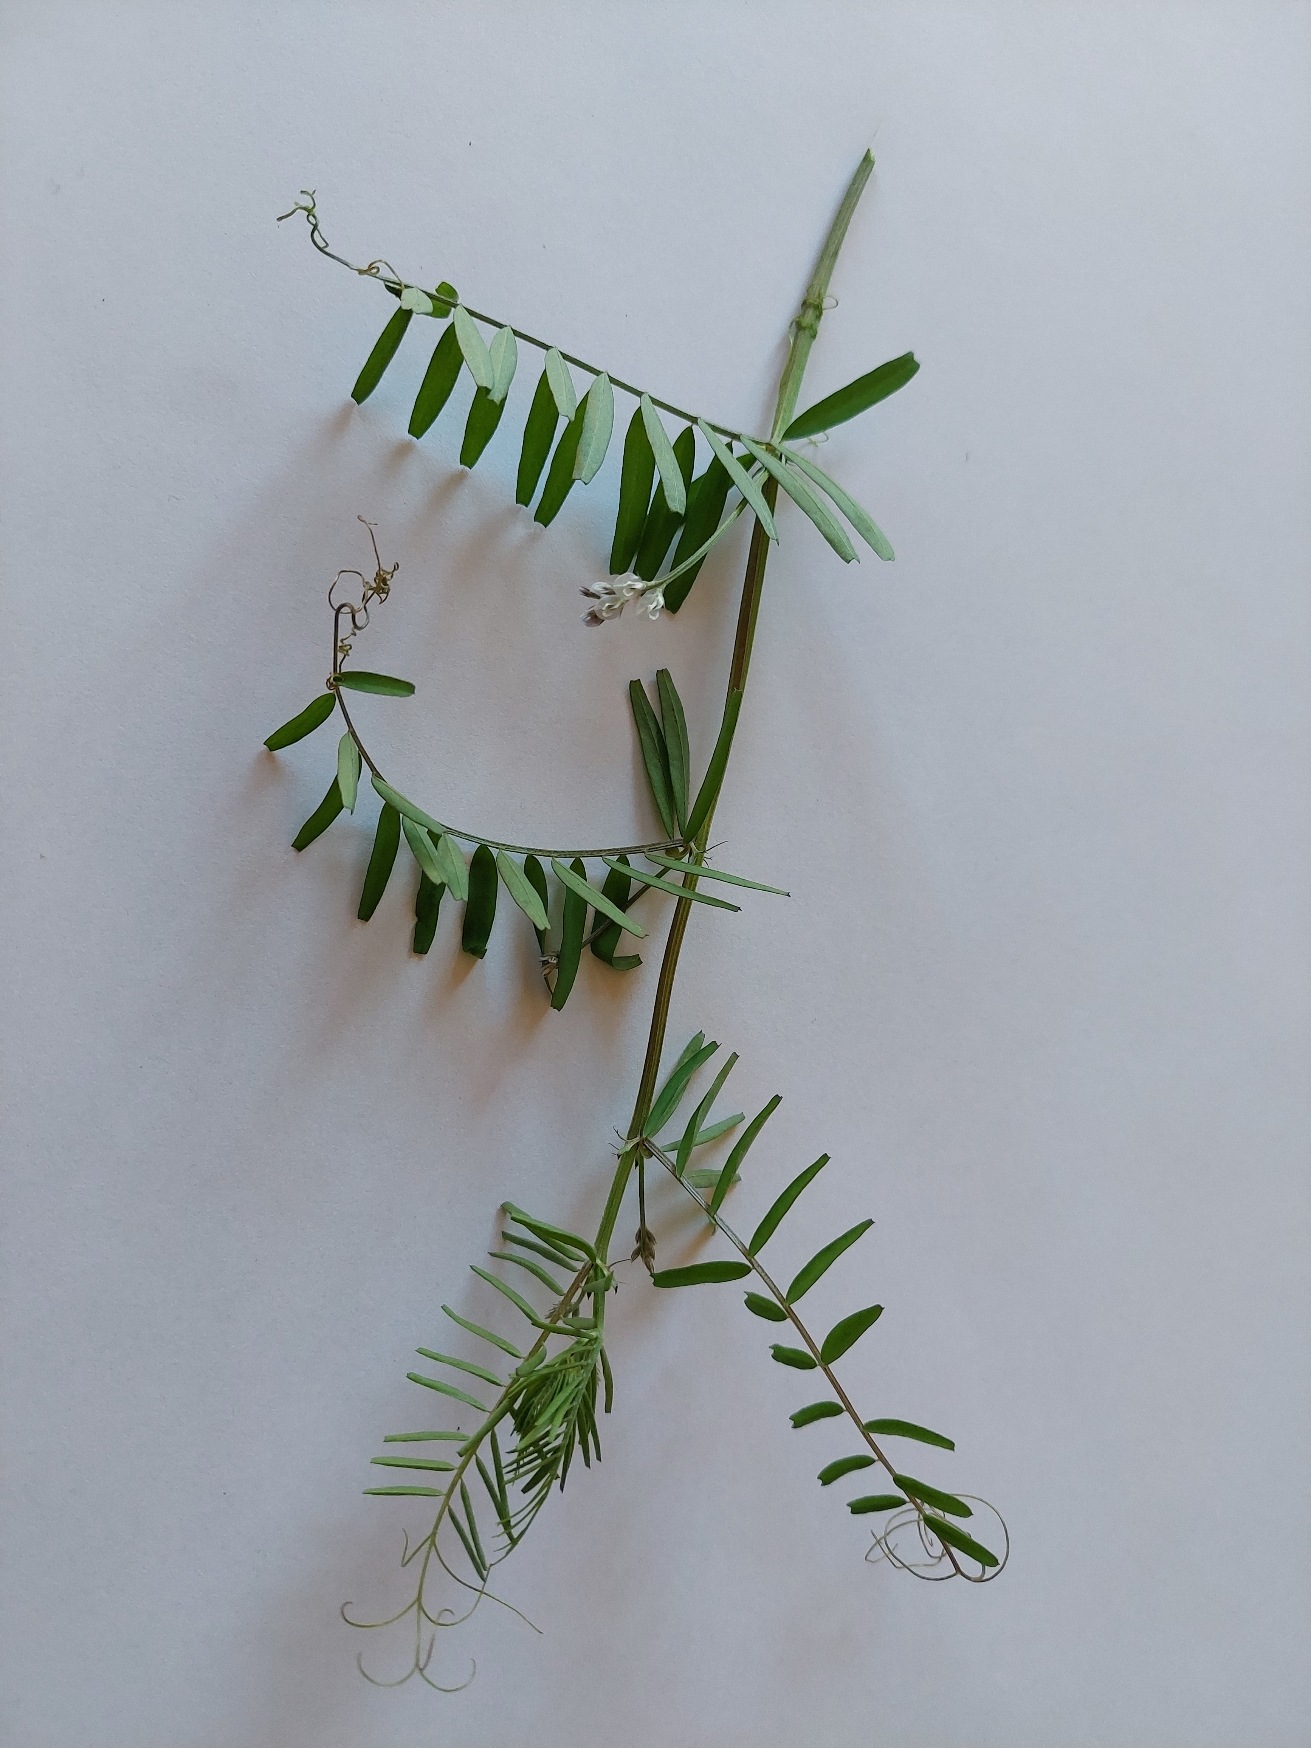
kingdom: Plantae
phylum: Tracheophyta
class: Magnoliopsida
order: Fabales
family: Fabaceae
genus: Vicia
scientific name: Vicia hirsuta
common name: Tofrøet vikke
